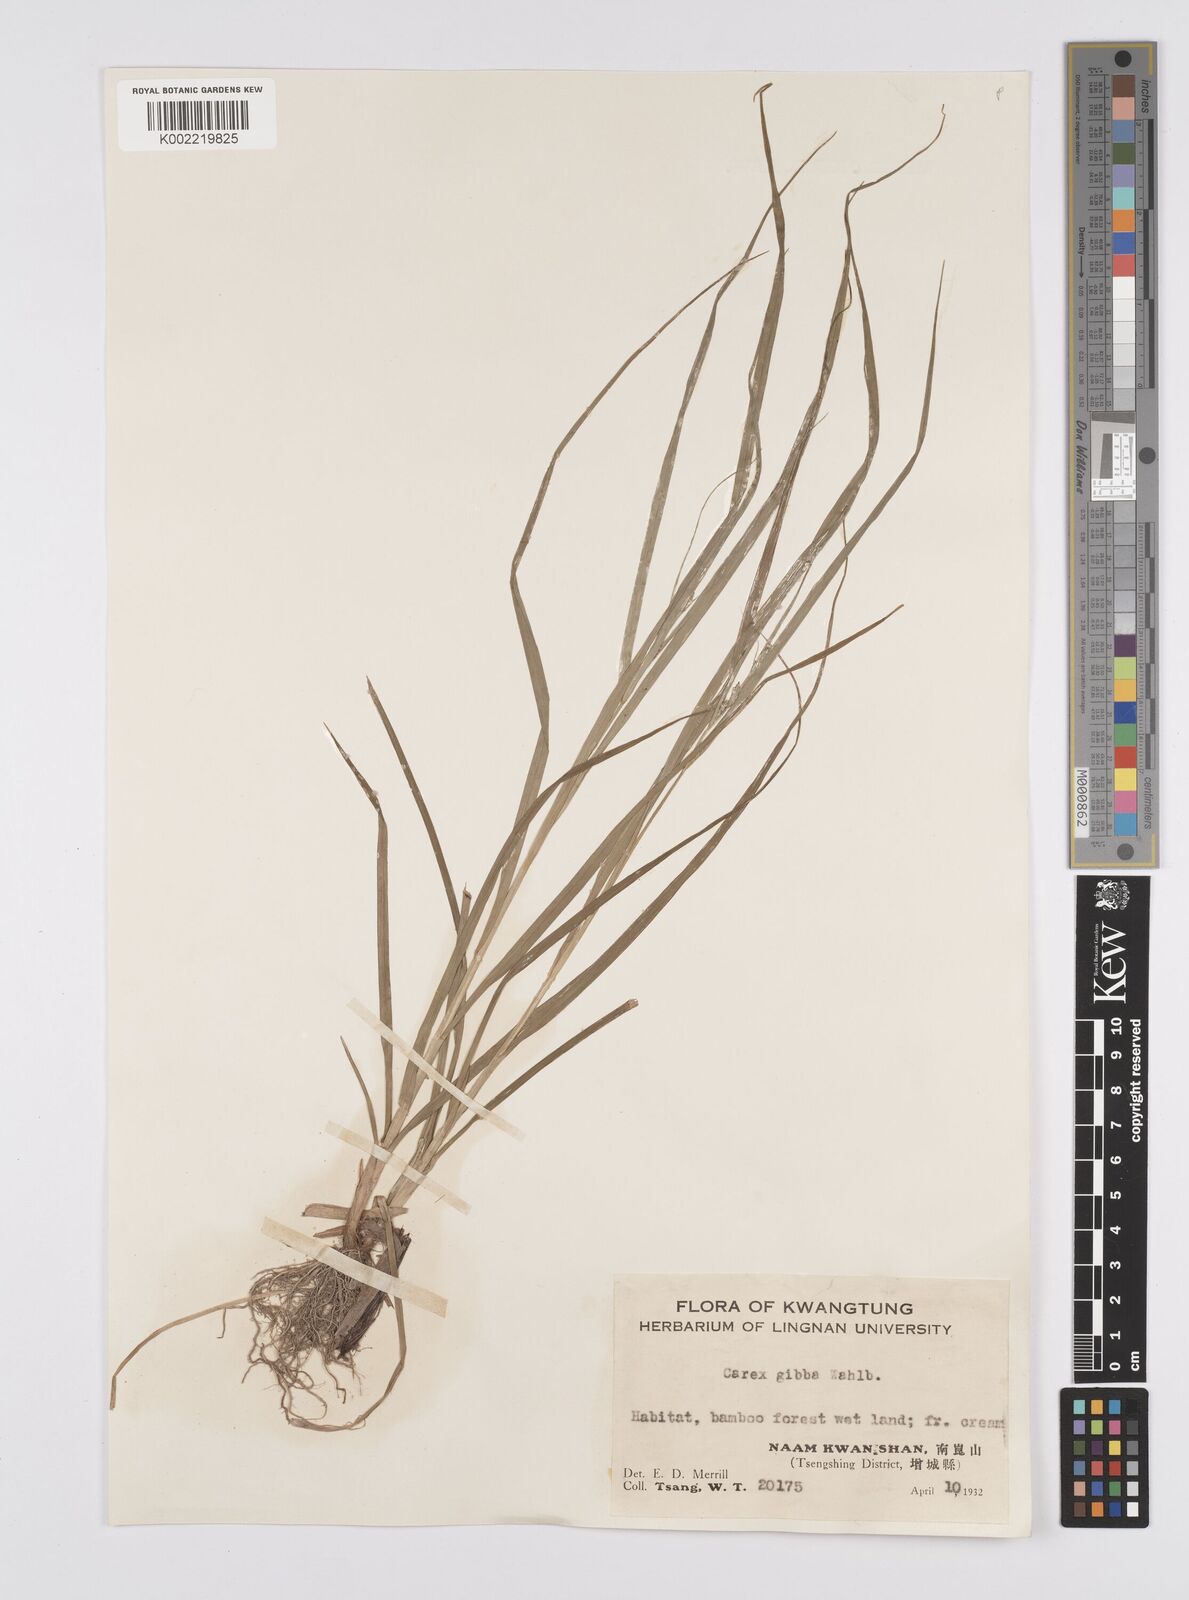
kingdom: Plantae
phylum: Tracheophyta
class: Liliopsida
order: Poales
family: Cyperaceae
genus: Carex
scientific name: Carex gibba
